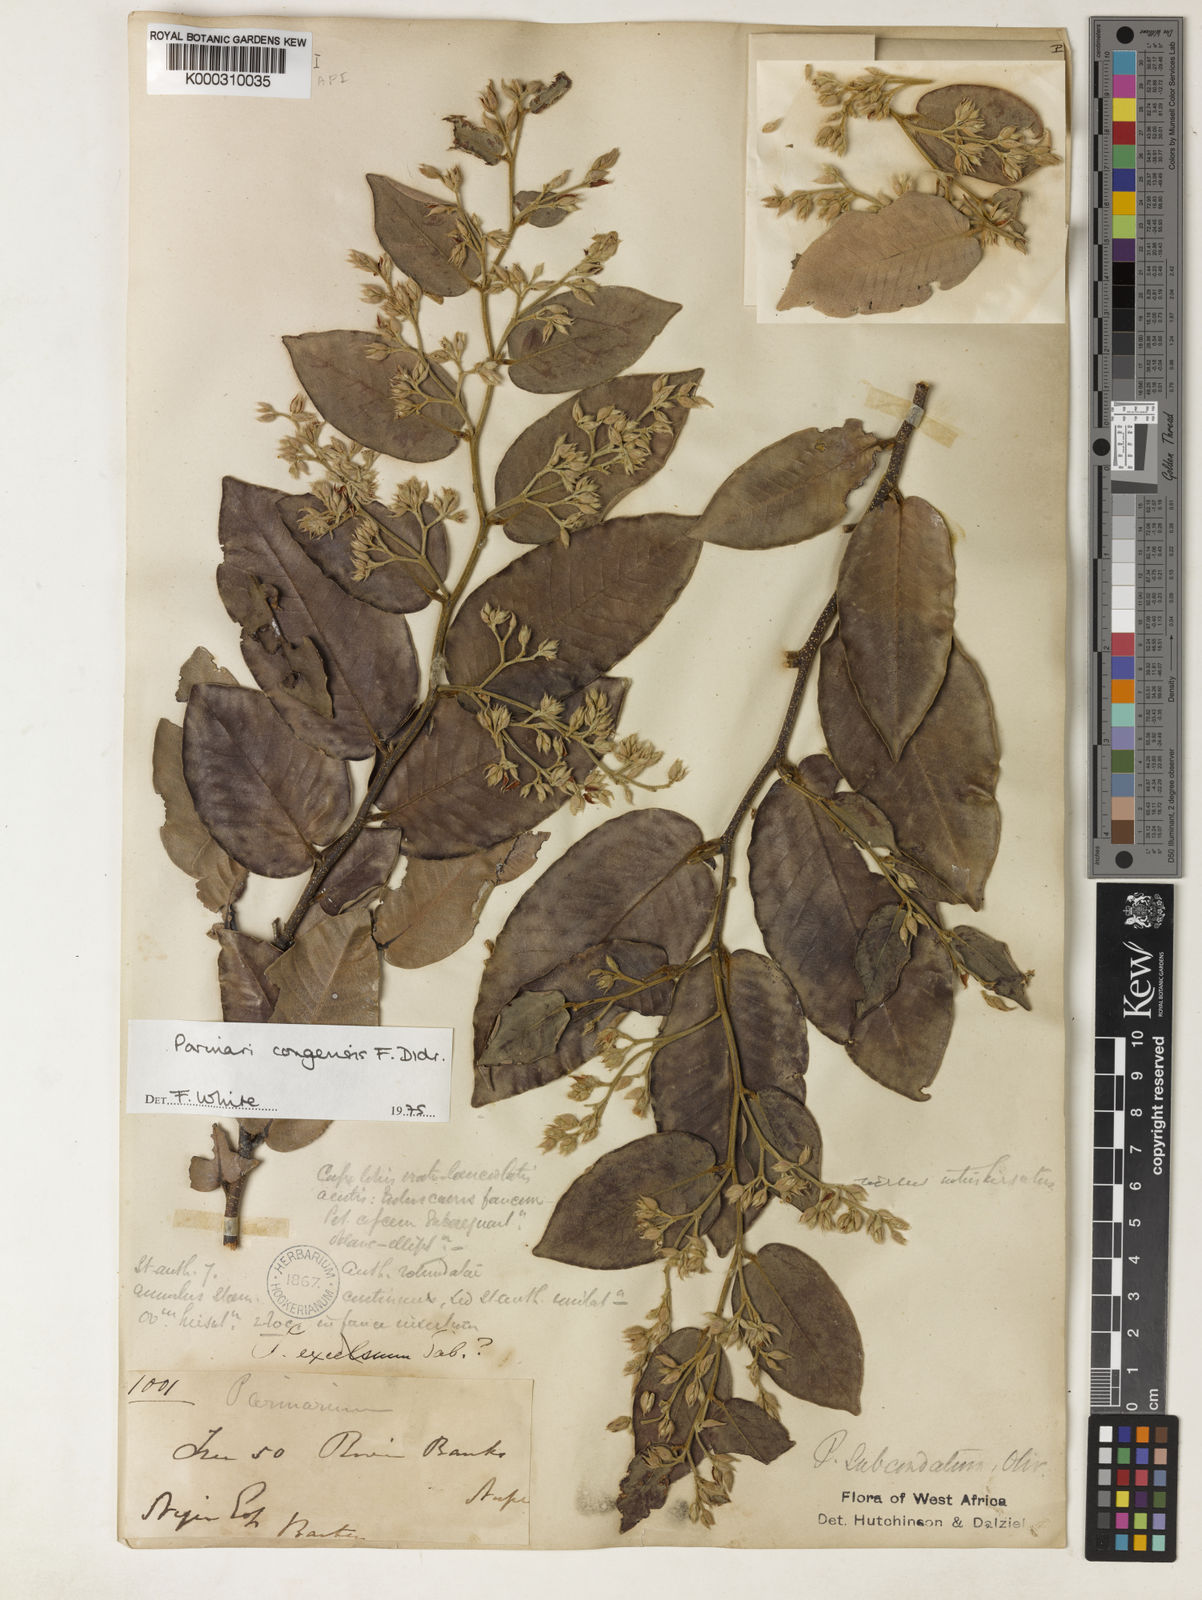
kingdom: Plantae
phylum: Tracheophyta
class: Magnoliopsida
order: Malpighiales
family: Chrysobalanaceae
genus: Parinari
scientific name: Parinari congensis
